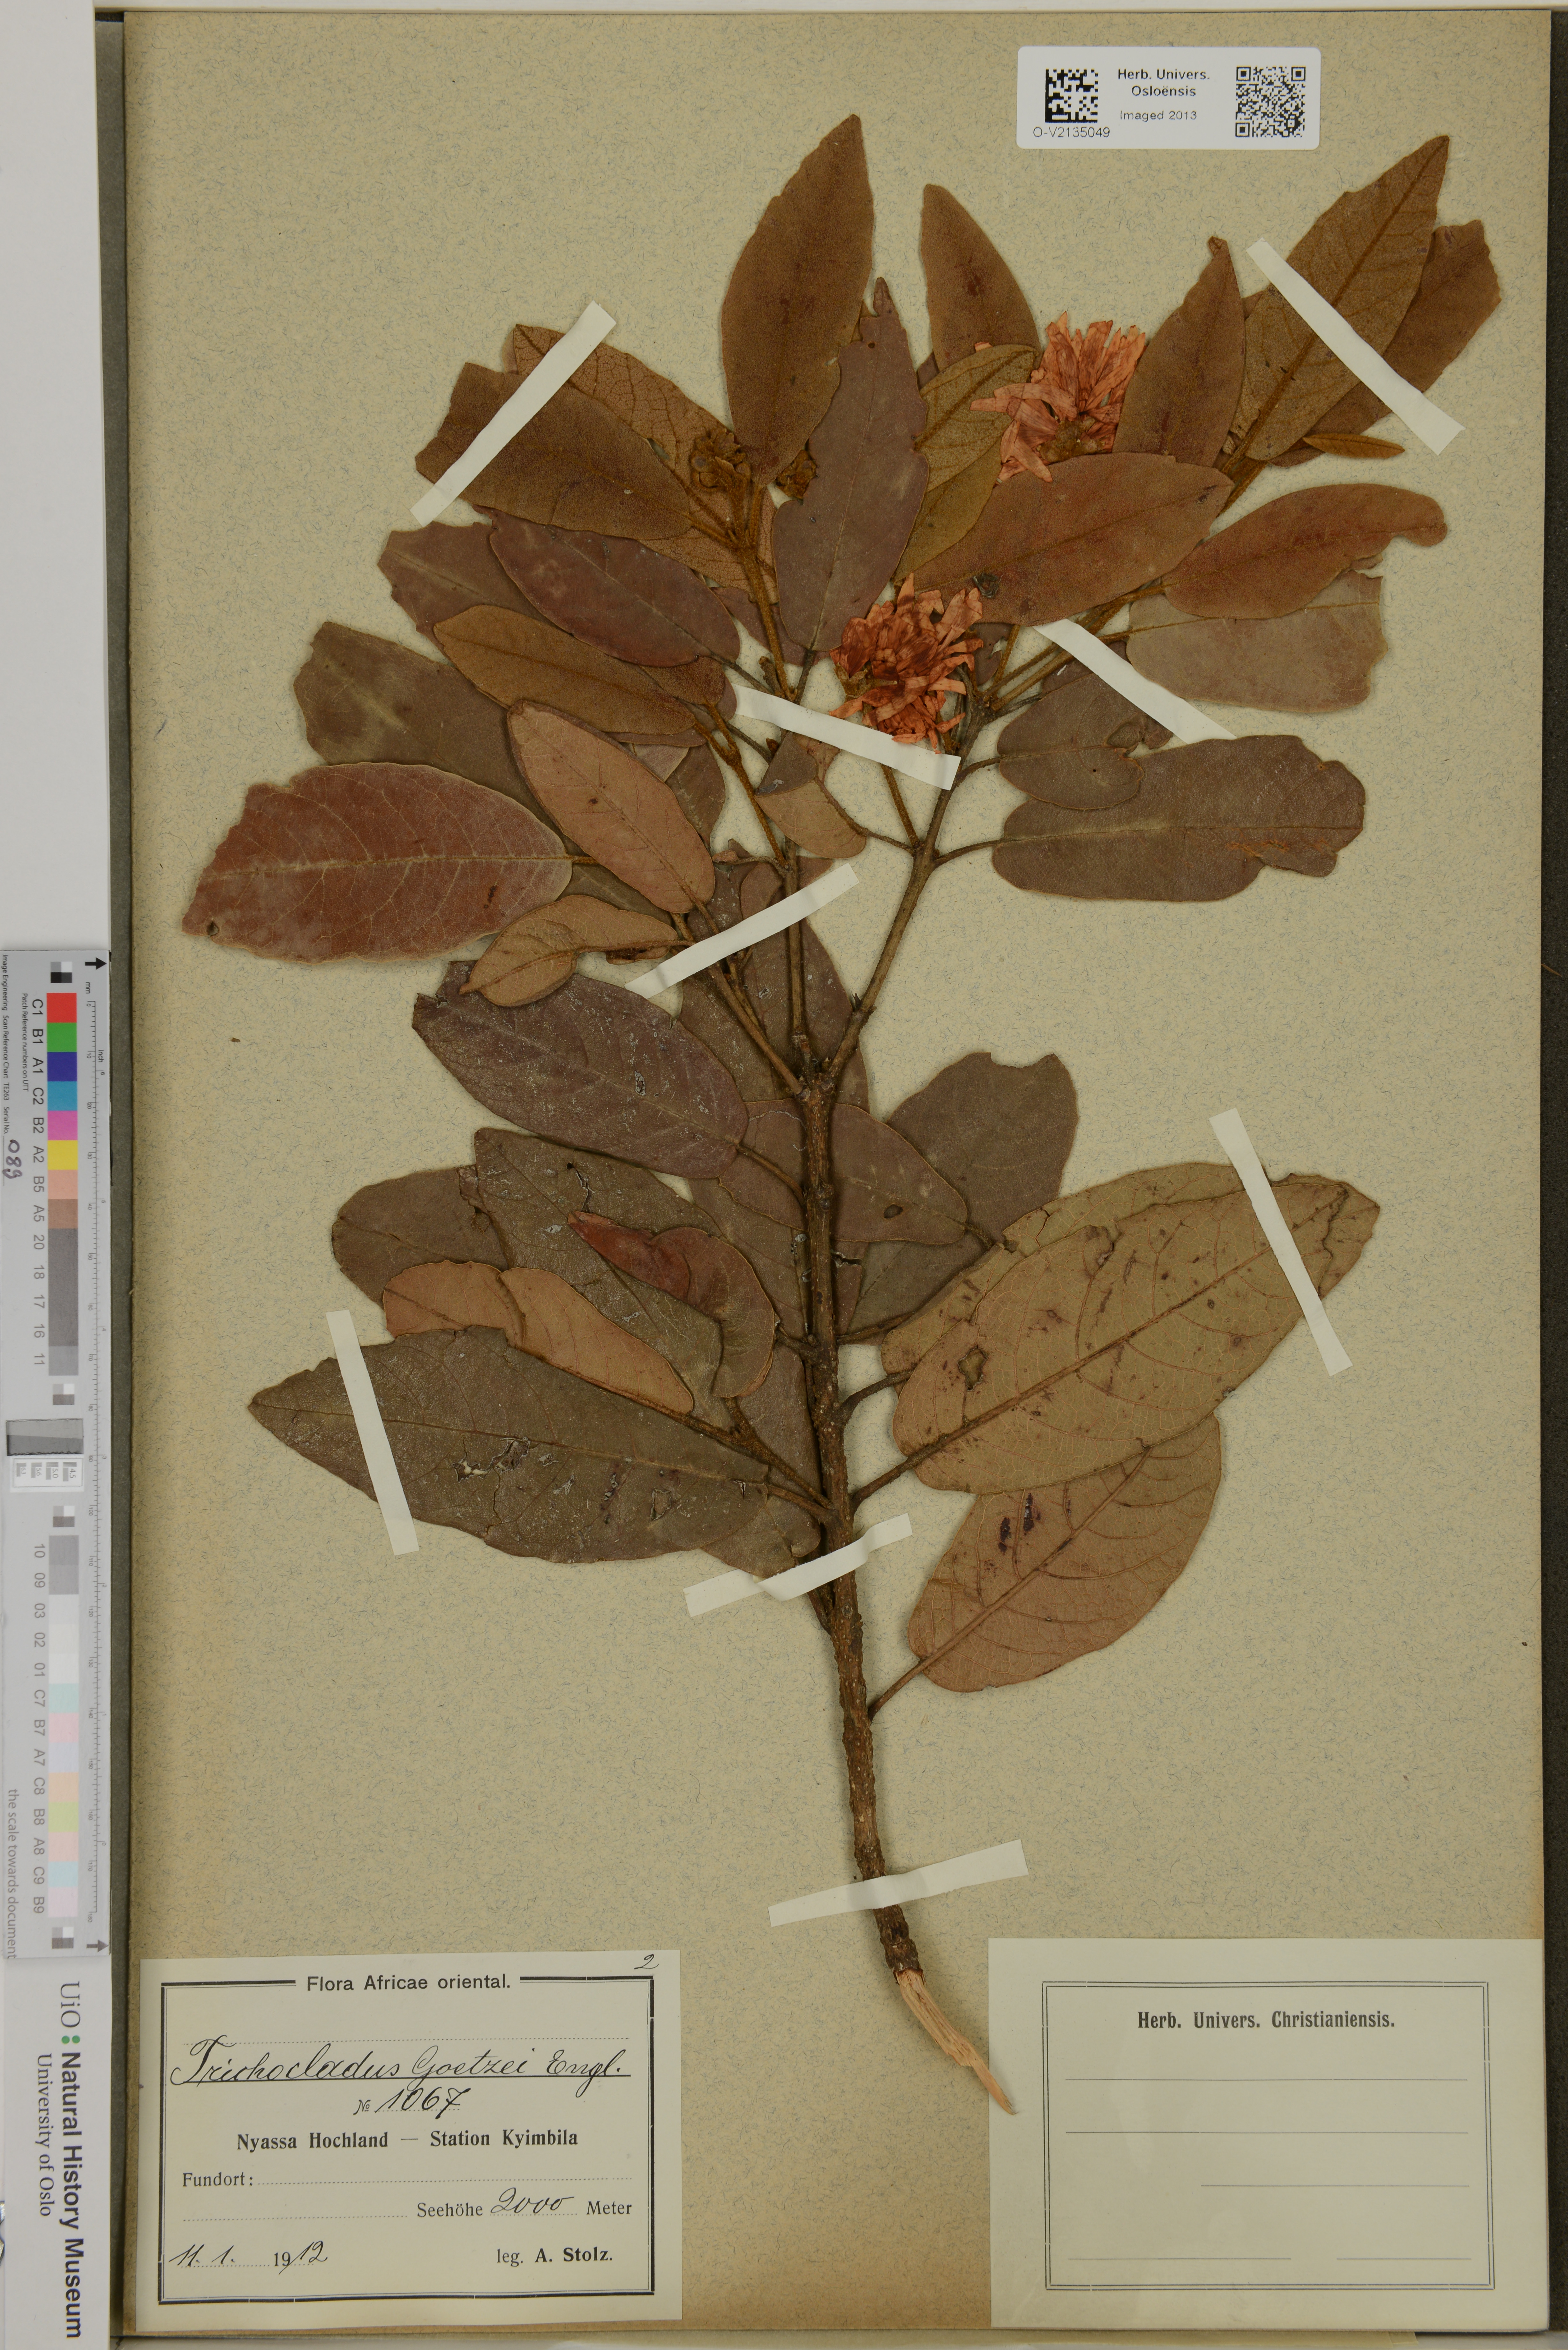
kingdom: Plantae
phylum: Tracheophyta
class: Magnoliopsida
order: Saxifragales
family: Hamamelidaceae
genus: Trichocladus
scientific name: Trichocladus goetzei
